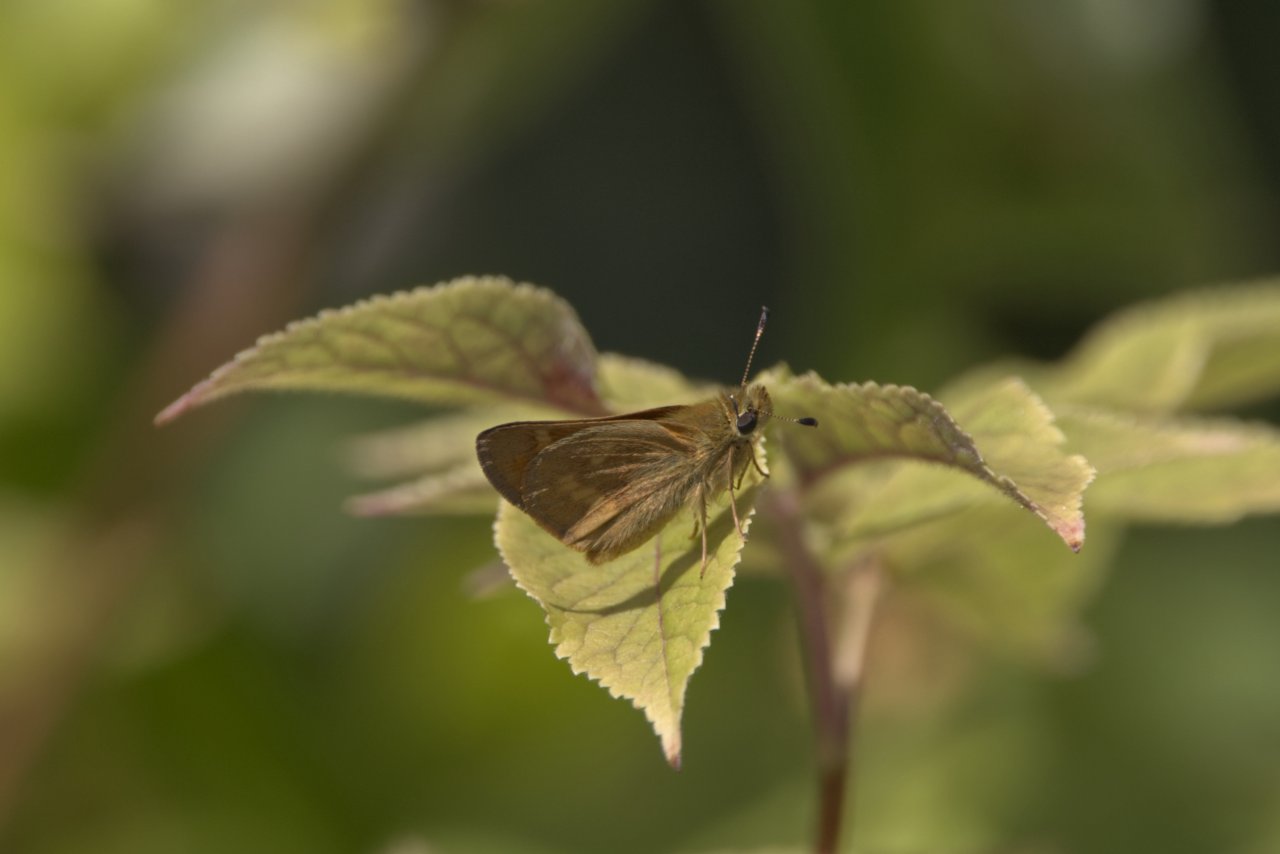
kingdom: Animalia
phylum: Arthropoda
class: Insecta
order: Lepidoptera
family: Hesperiidae
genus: Ochlodes
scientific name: Ochlodes sylvanoides
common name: Woodland Skipper
